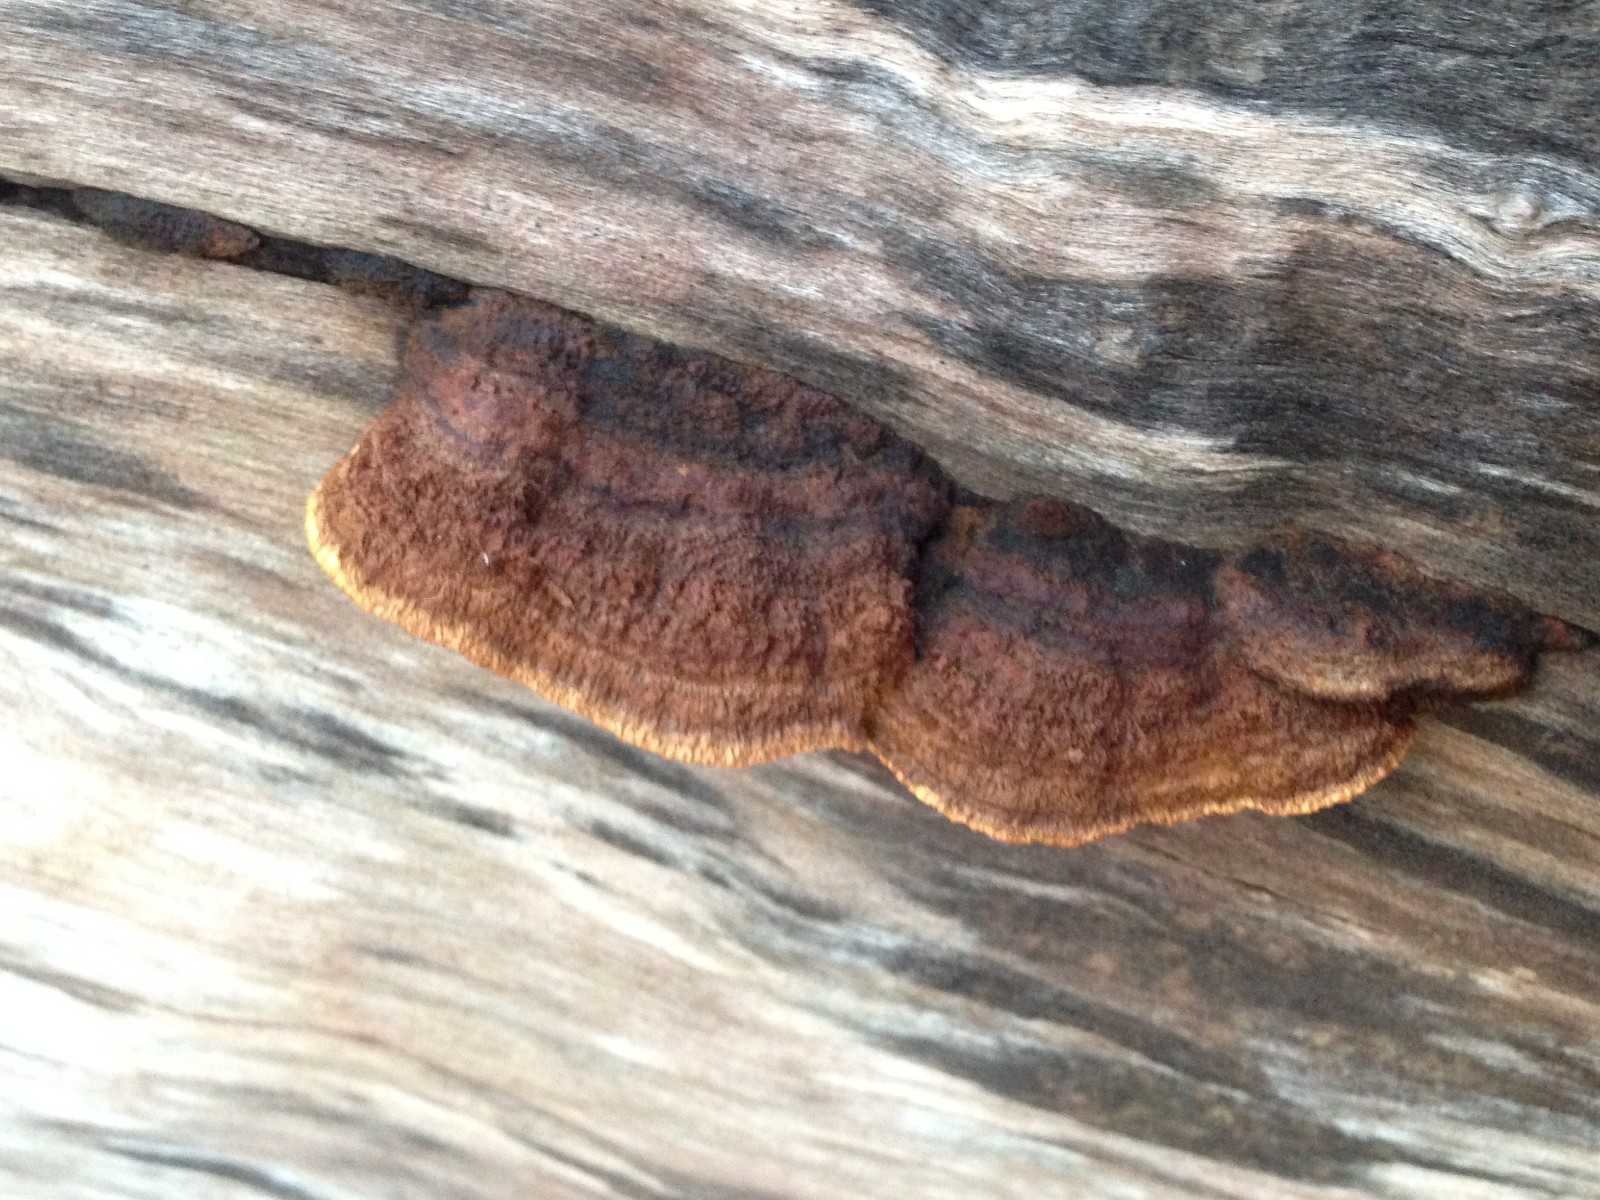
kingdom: Fungi
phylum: Basidiomycota
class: Agaricomycetes
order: Gloeophyllales
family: Gloeophyllaceae
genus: Gloeophyllum
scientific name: Gloeophyllum sepiarium
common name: fyrre-korkhat
